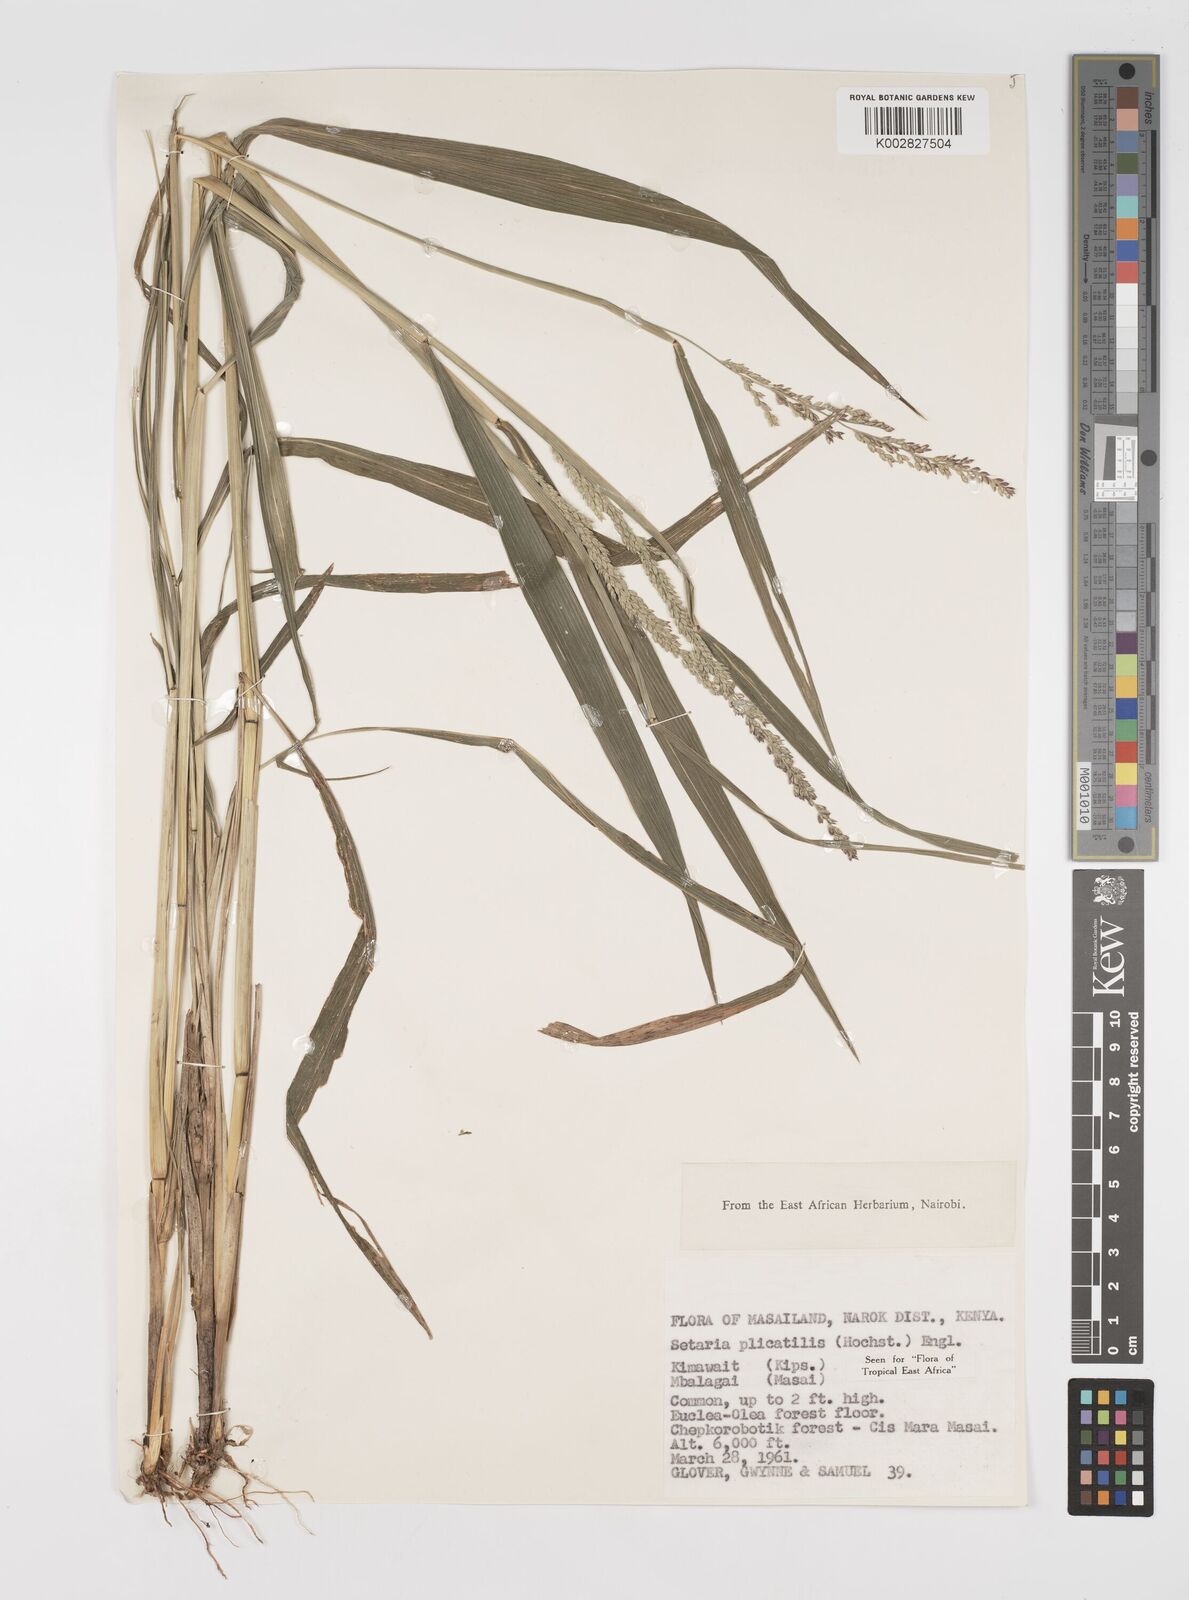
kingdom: Plantae
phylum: Tracheophyta
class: Liliopsida
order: Poales
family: Poaceae
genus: Setaria
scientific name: Setaria megaphylla
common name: Bigleaf bristlegrass
